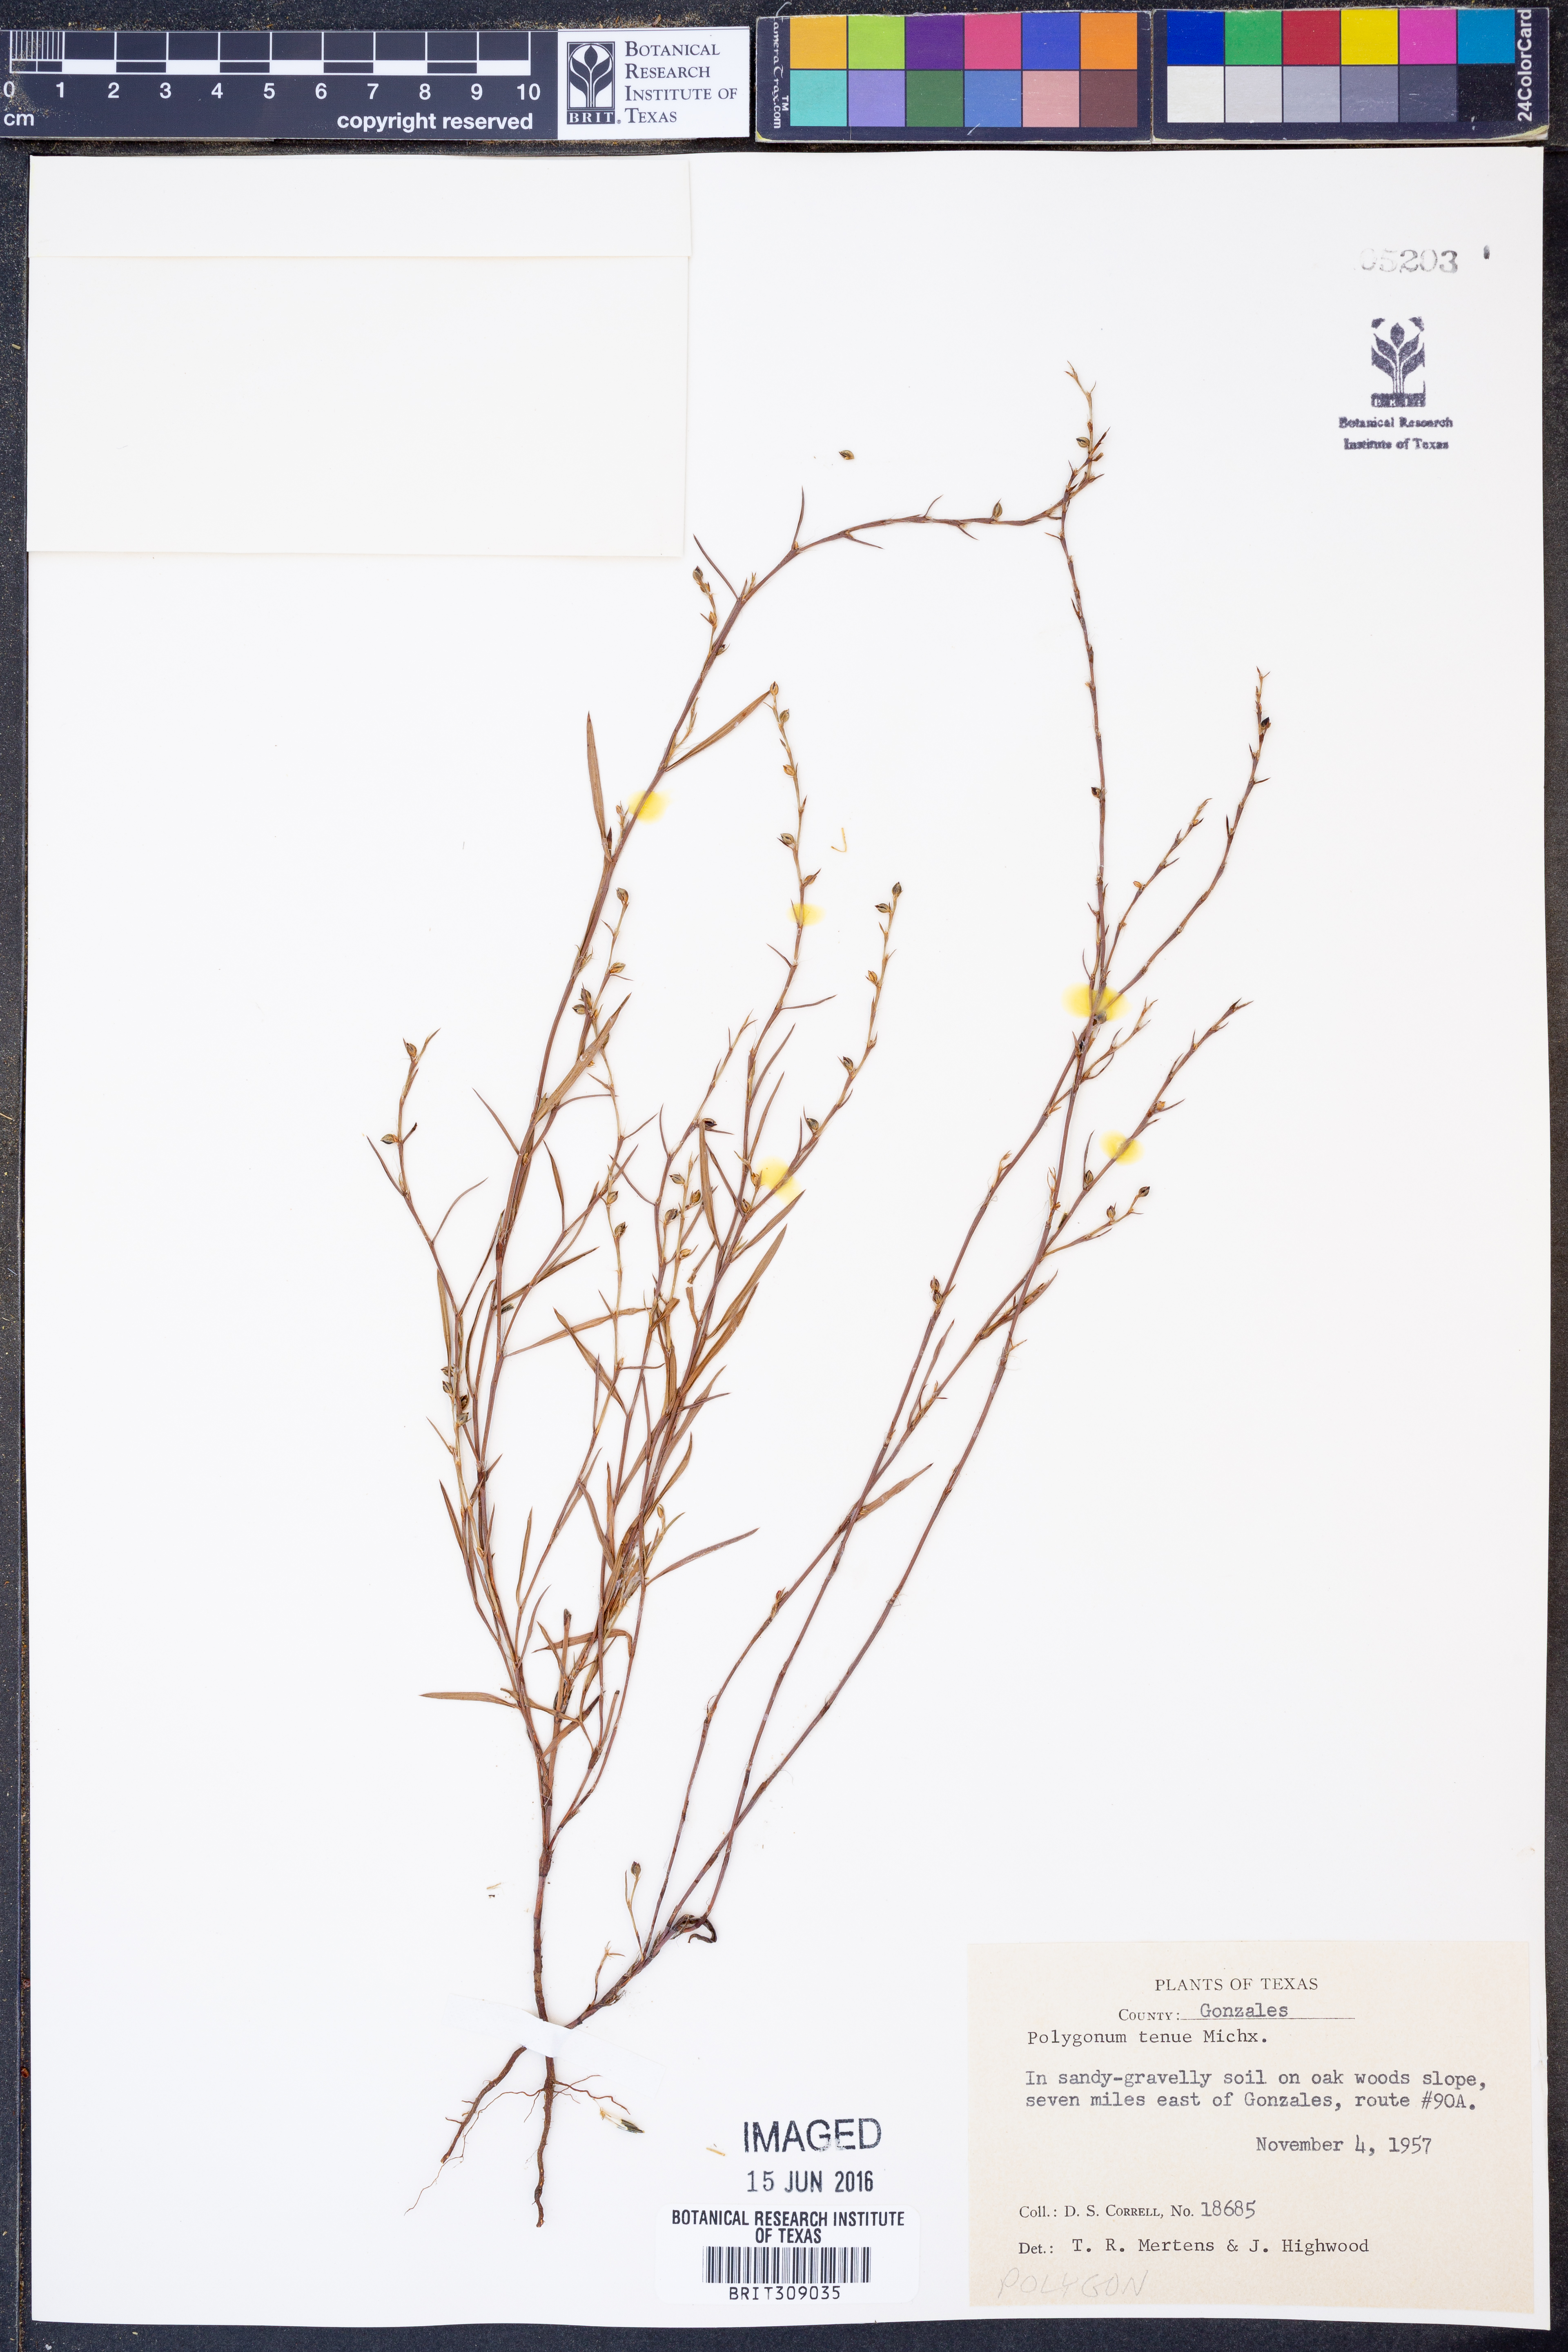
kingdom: Plantae
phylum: Tracheophyta
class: Magnoliopsida
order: Caryophyllales
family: Polygonaceae
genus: Polygonum
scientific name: Polygonum tenue
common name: Pleat-leaved knotweed
